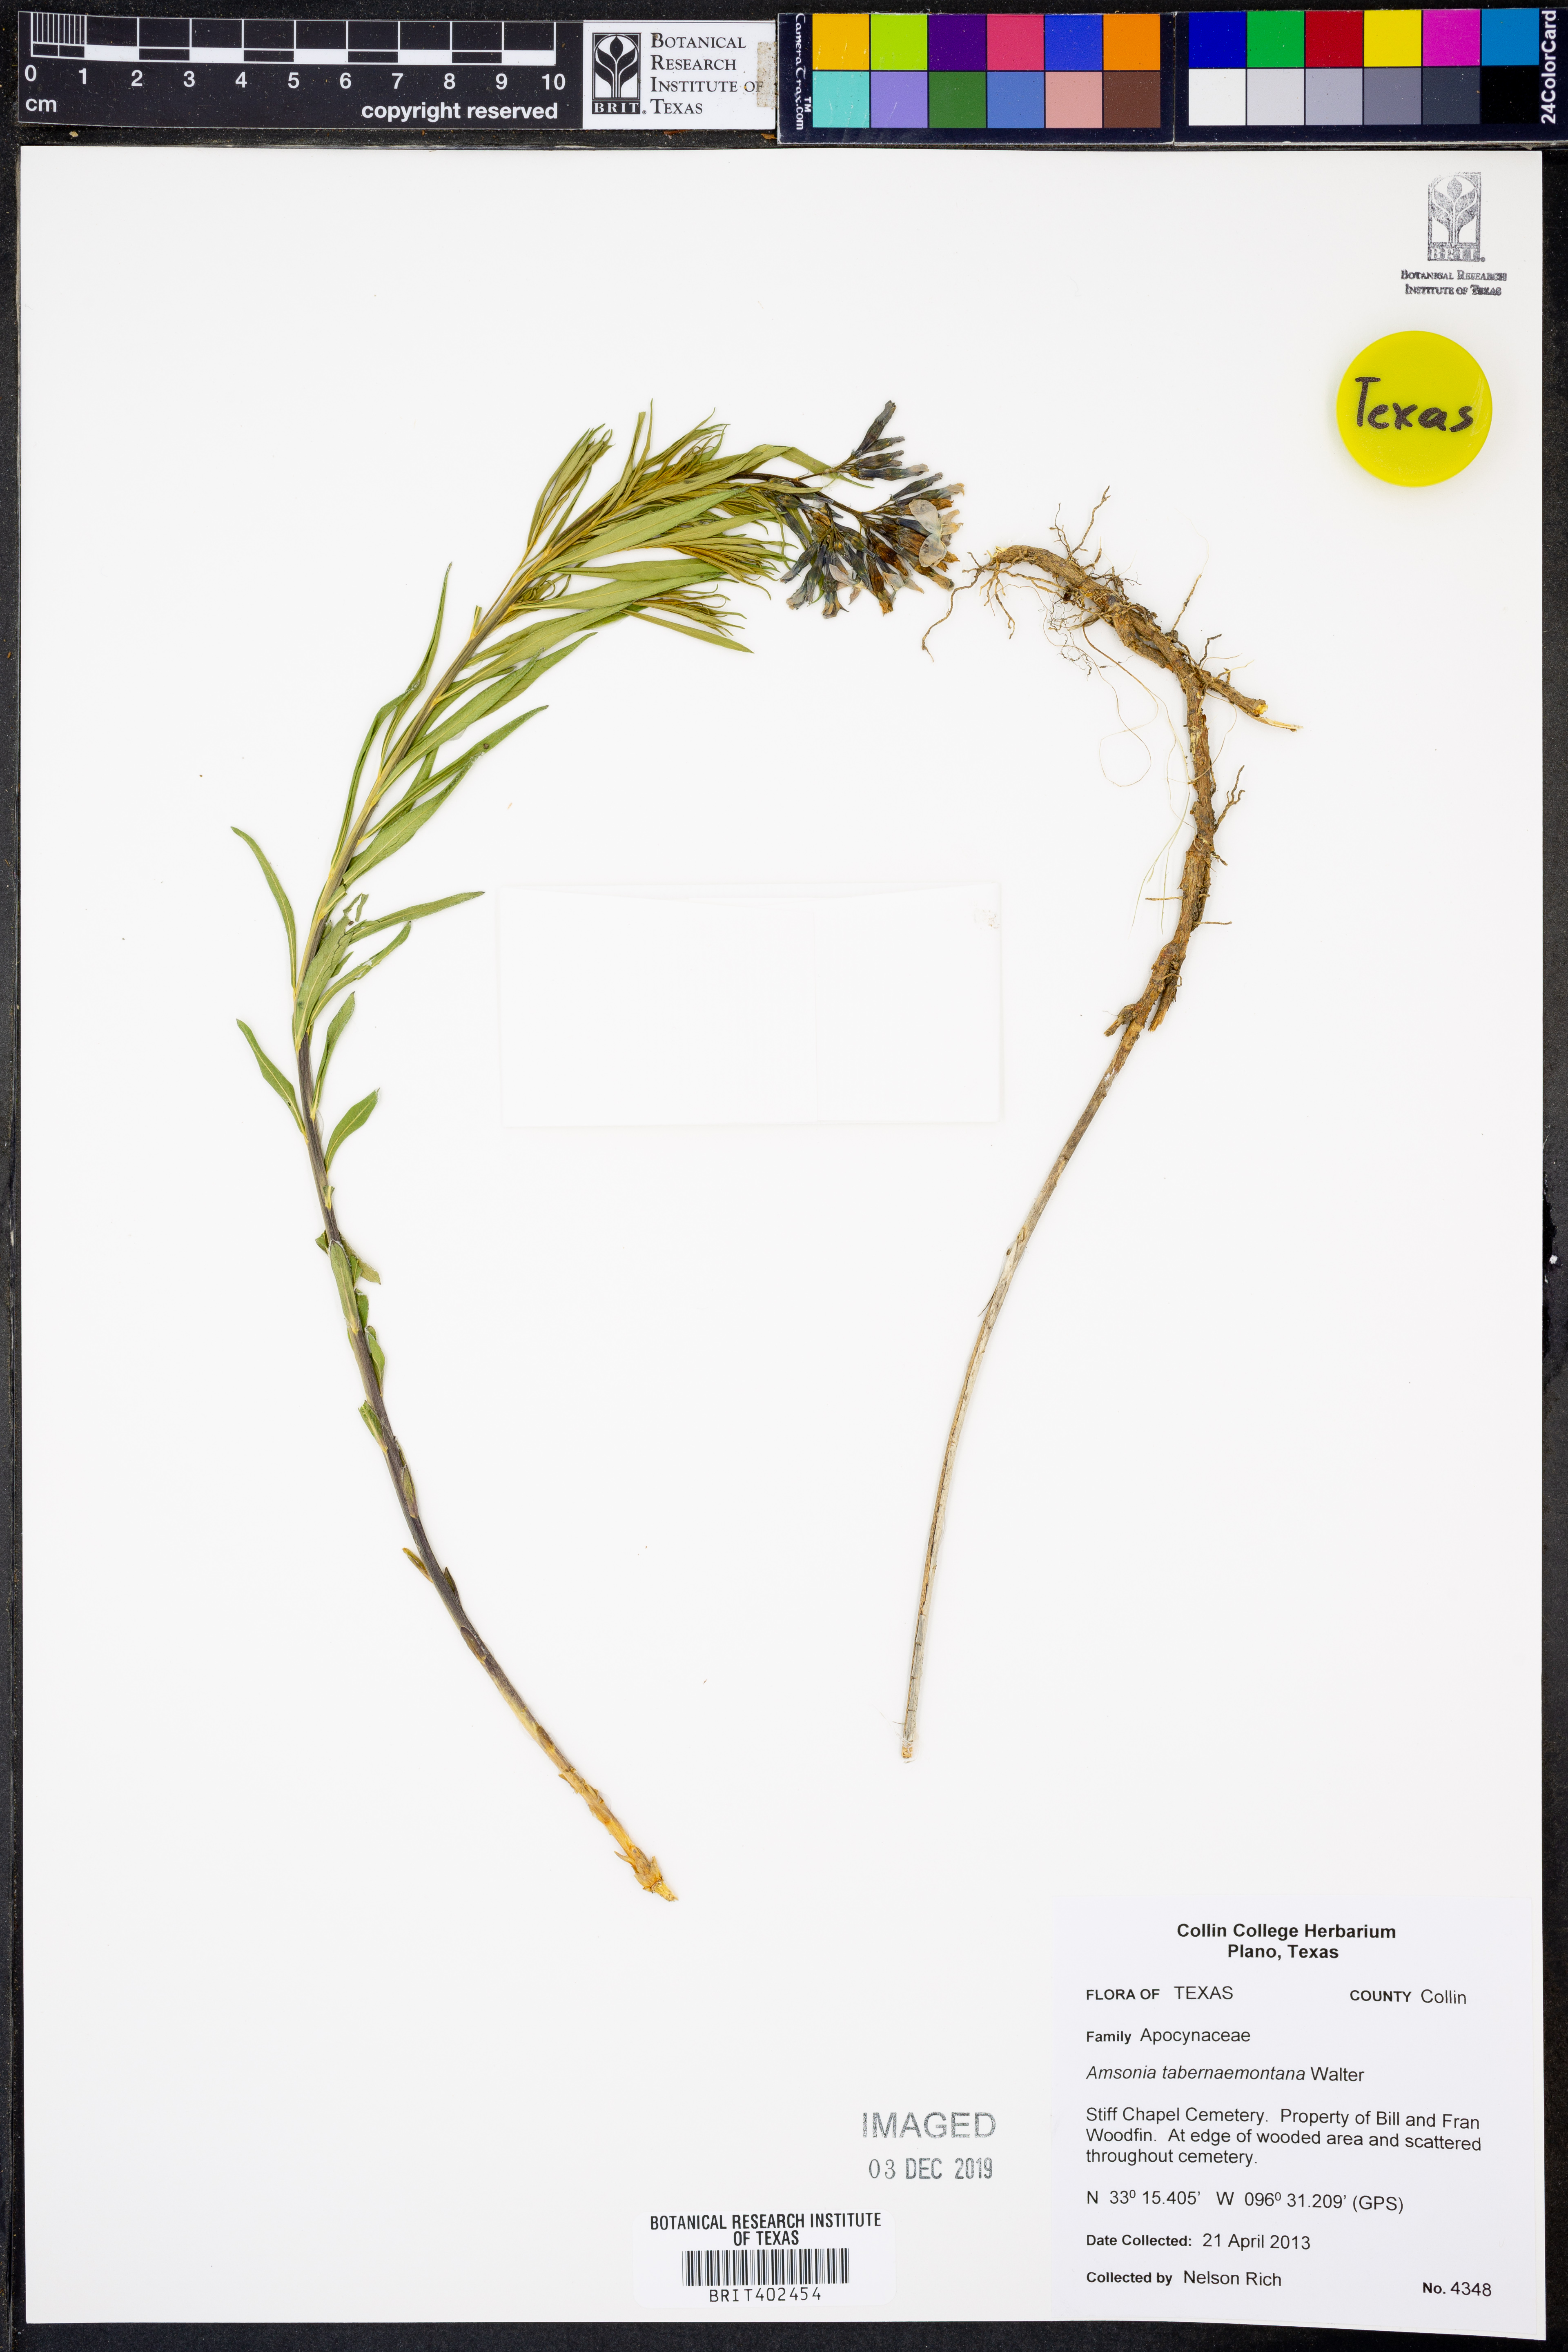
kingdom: Plantae
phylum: Tracheophyta
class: Magnoliopsida
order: Gentianales
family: Apocynaceae
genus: Amsonia
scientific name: Amsonia tabernaemontana
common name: Texas-star
